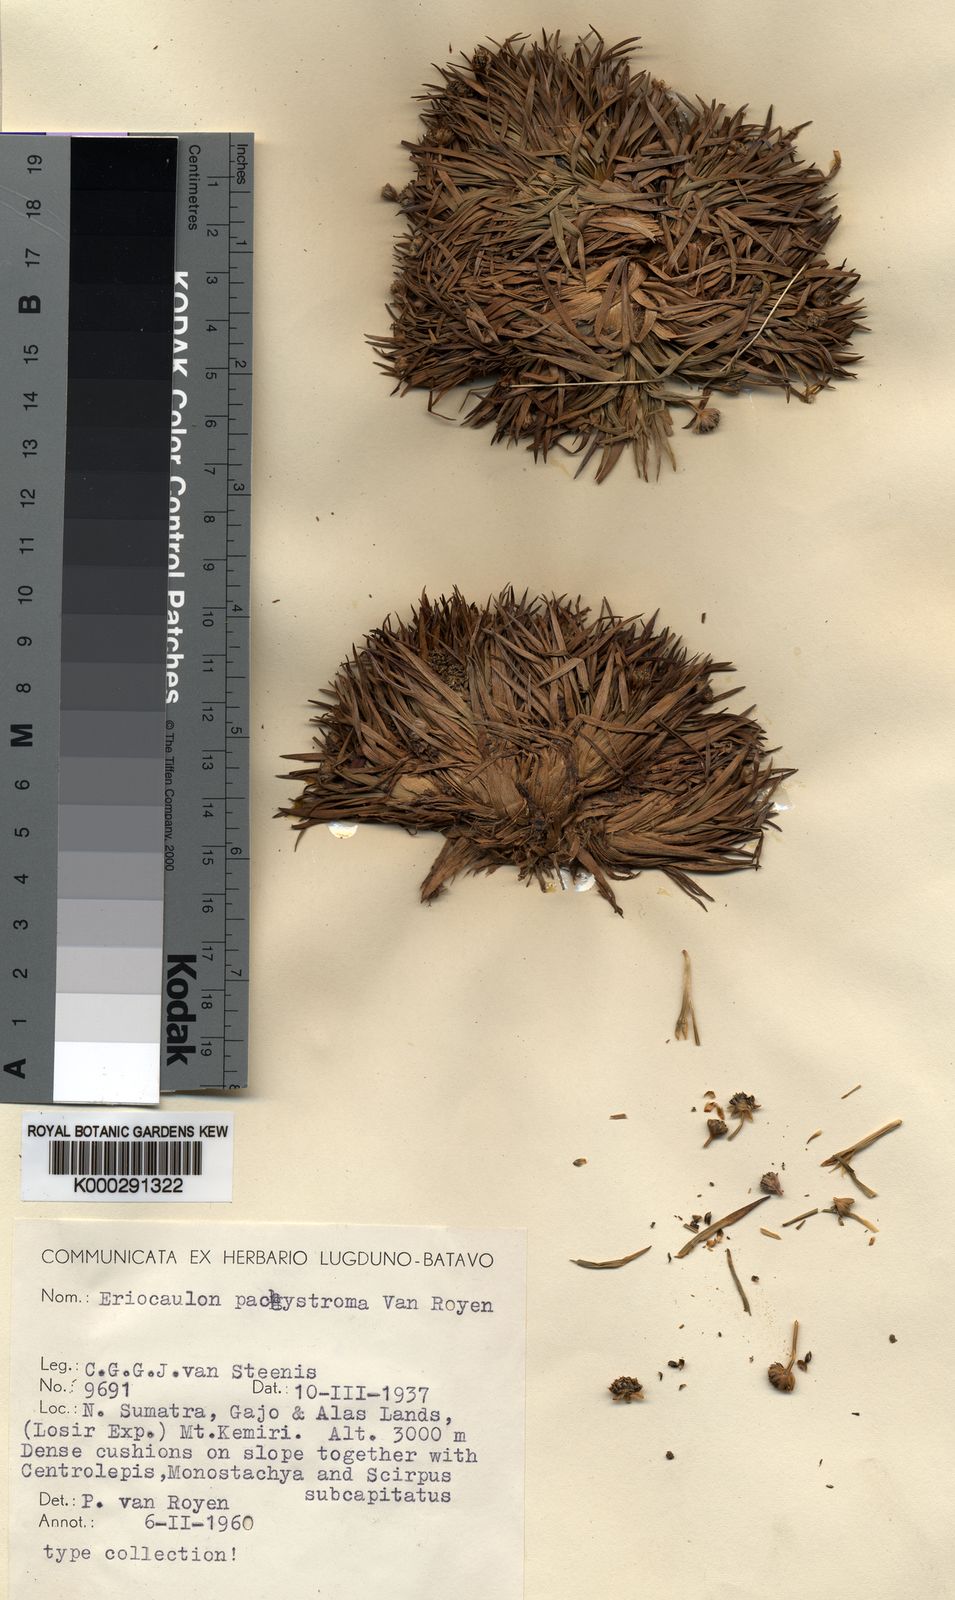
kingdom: Plantae
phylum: Tracheophyta
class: Liliopsida
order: Poales
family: Eriocaulaceae
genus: Eriocaulon
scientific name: Eriocaulon pachystroma
